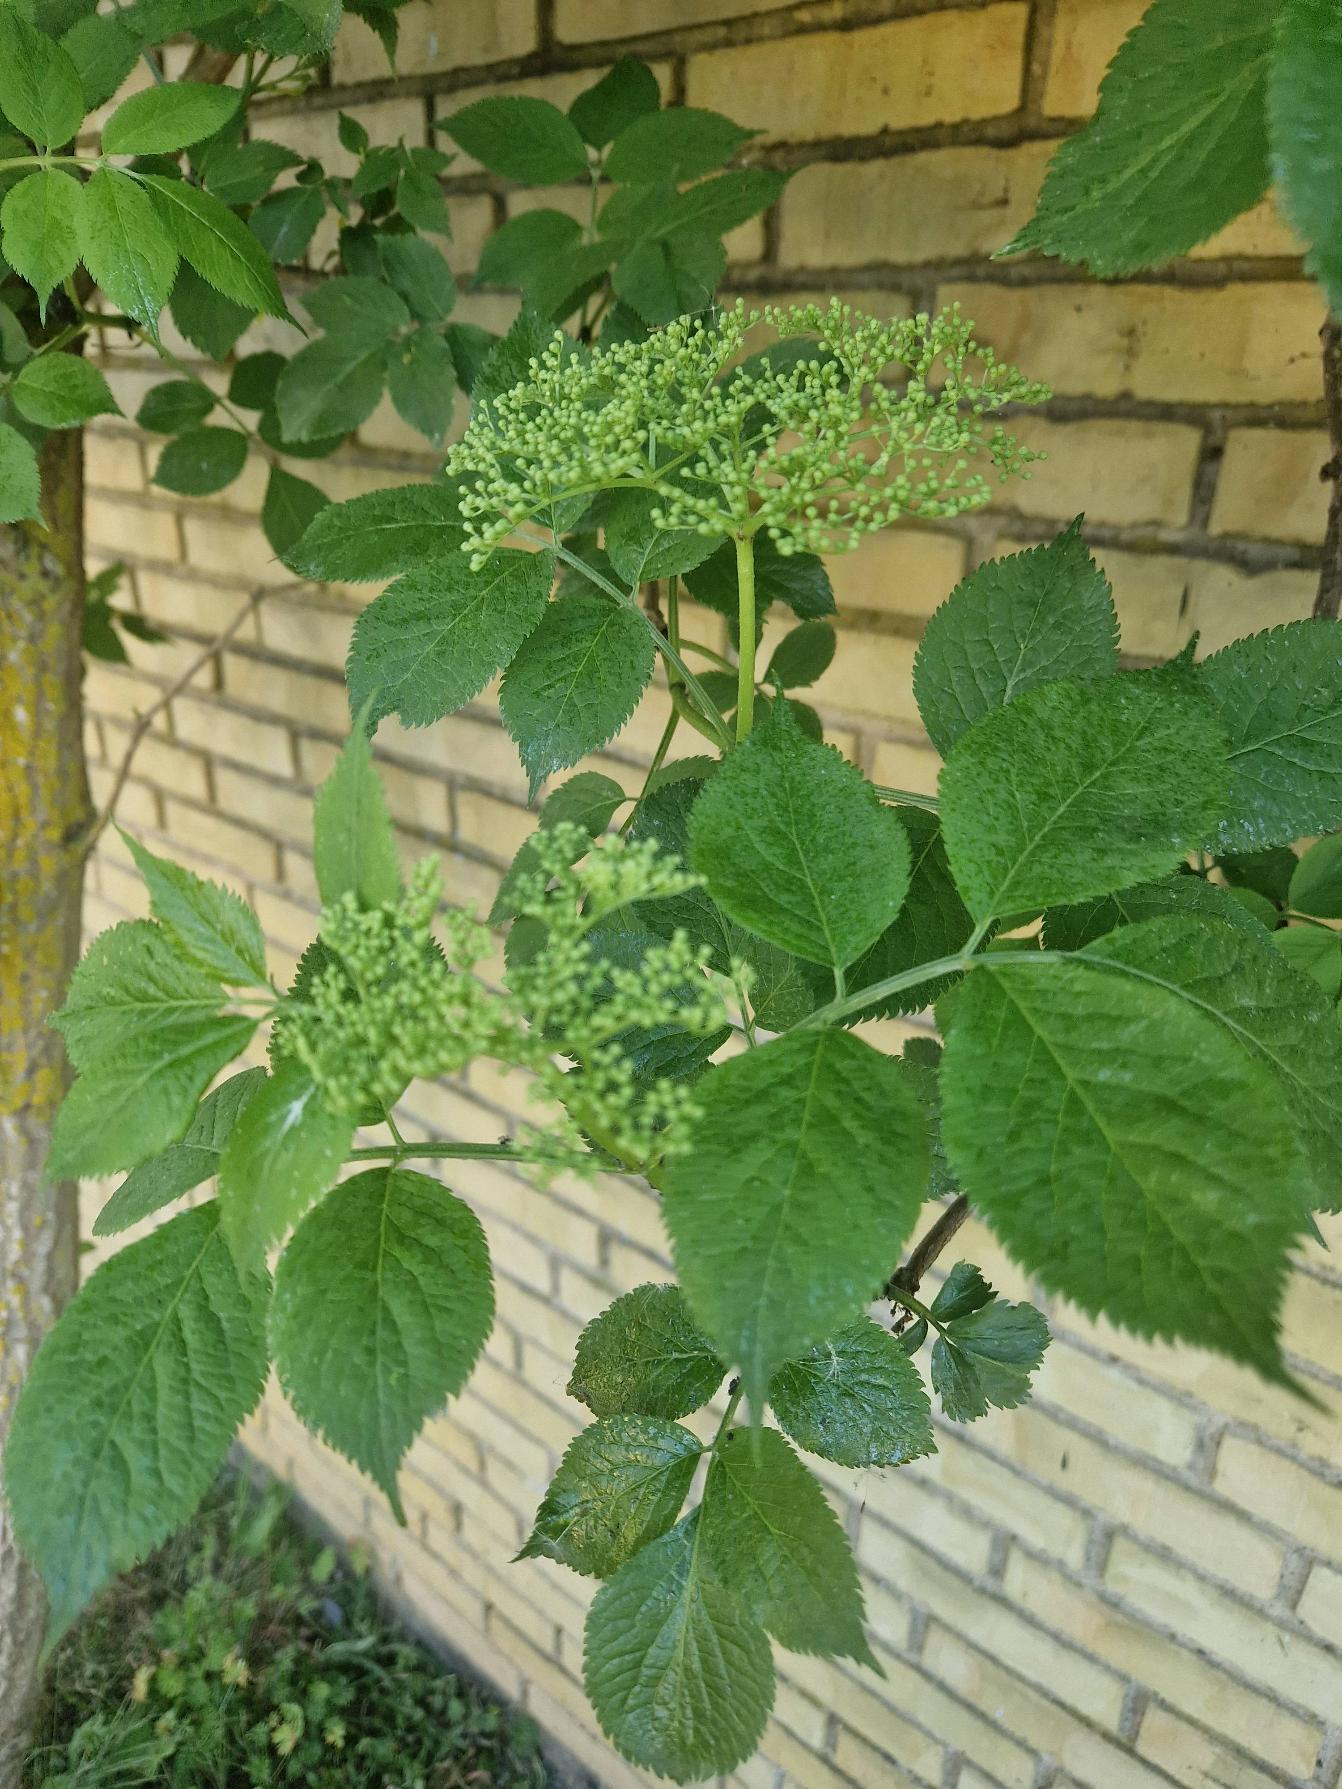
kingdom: Plantae
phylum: Tracheophyta
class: Magnoliopsida
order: Dipsacales
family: Viburnaceae
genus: Sambucus
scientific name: Sambucus nigra
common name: Almindelig hyld
